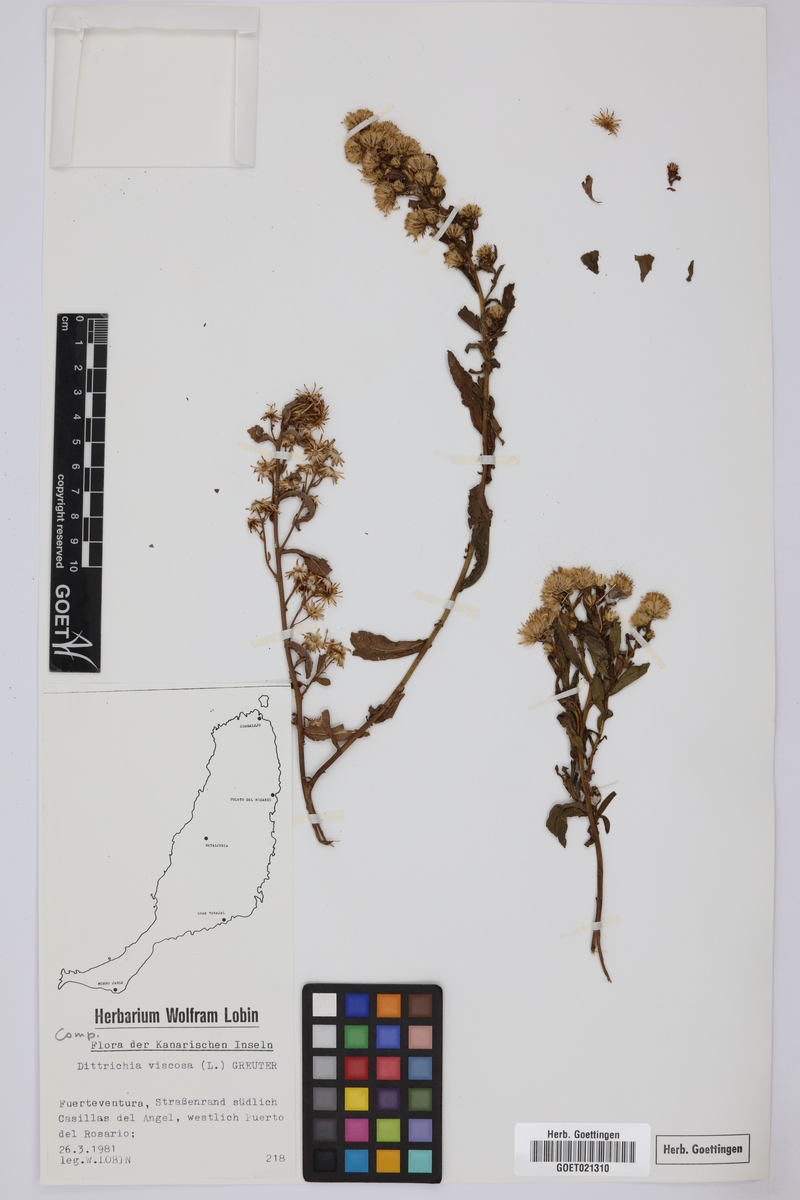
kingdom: Plantae
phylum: Tracheophyta
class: Magnoliopsida
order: Asterales
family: Asteraceae
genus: Dittrichia
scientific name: Dittrichia viscosa
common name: Woody fleabane
